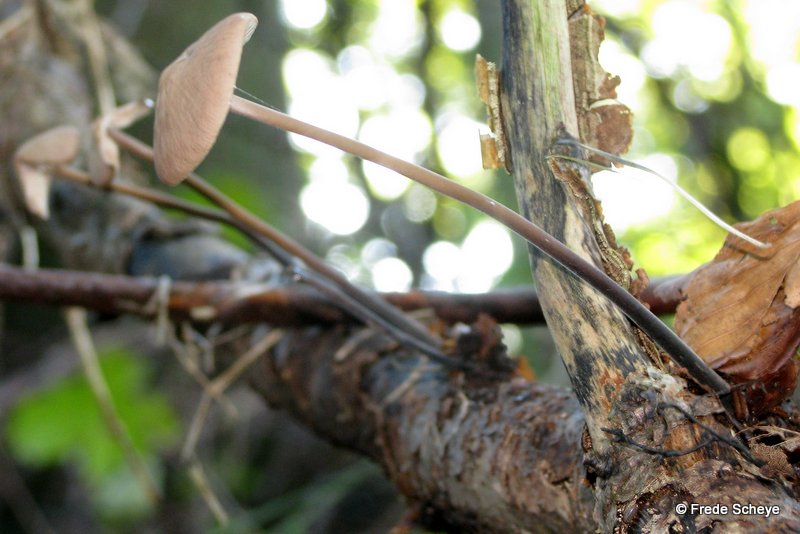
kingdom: Fungi
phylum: Basidiomycota
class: Agaricomycetes
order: Agaricales
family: Omphalotaceae
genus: Mycetinis
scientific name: Mycetinis alliaceus
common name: stor løghat
